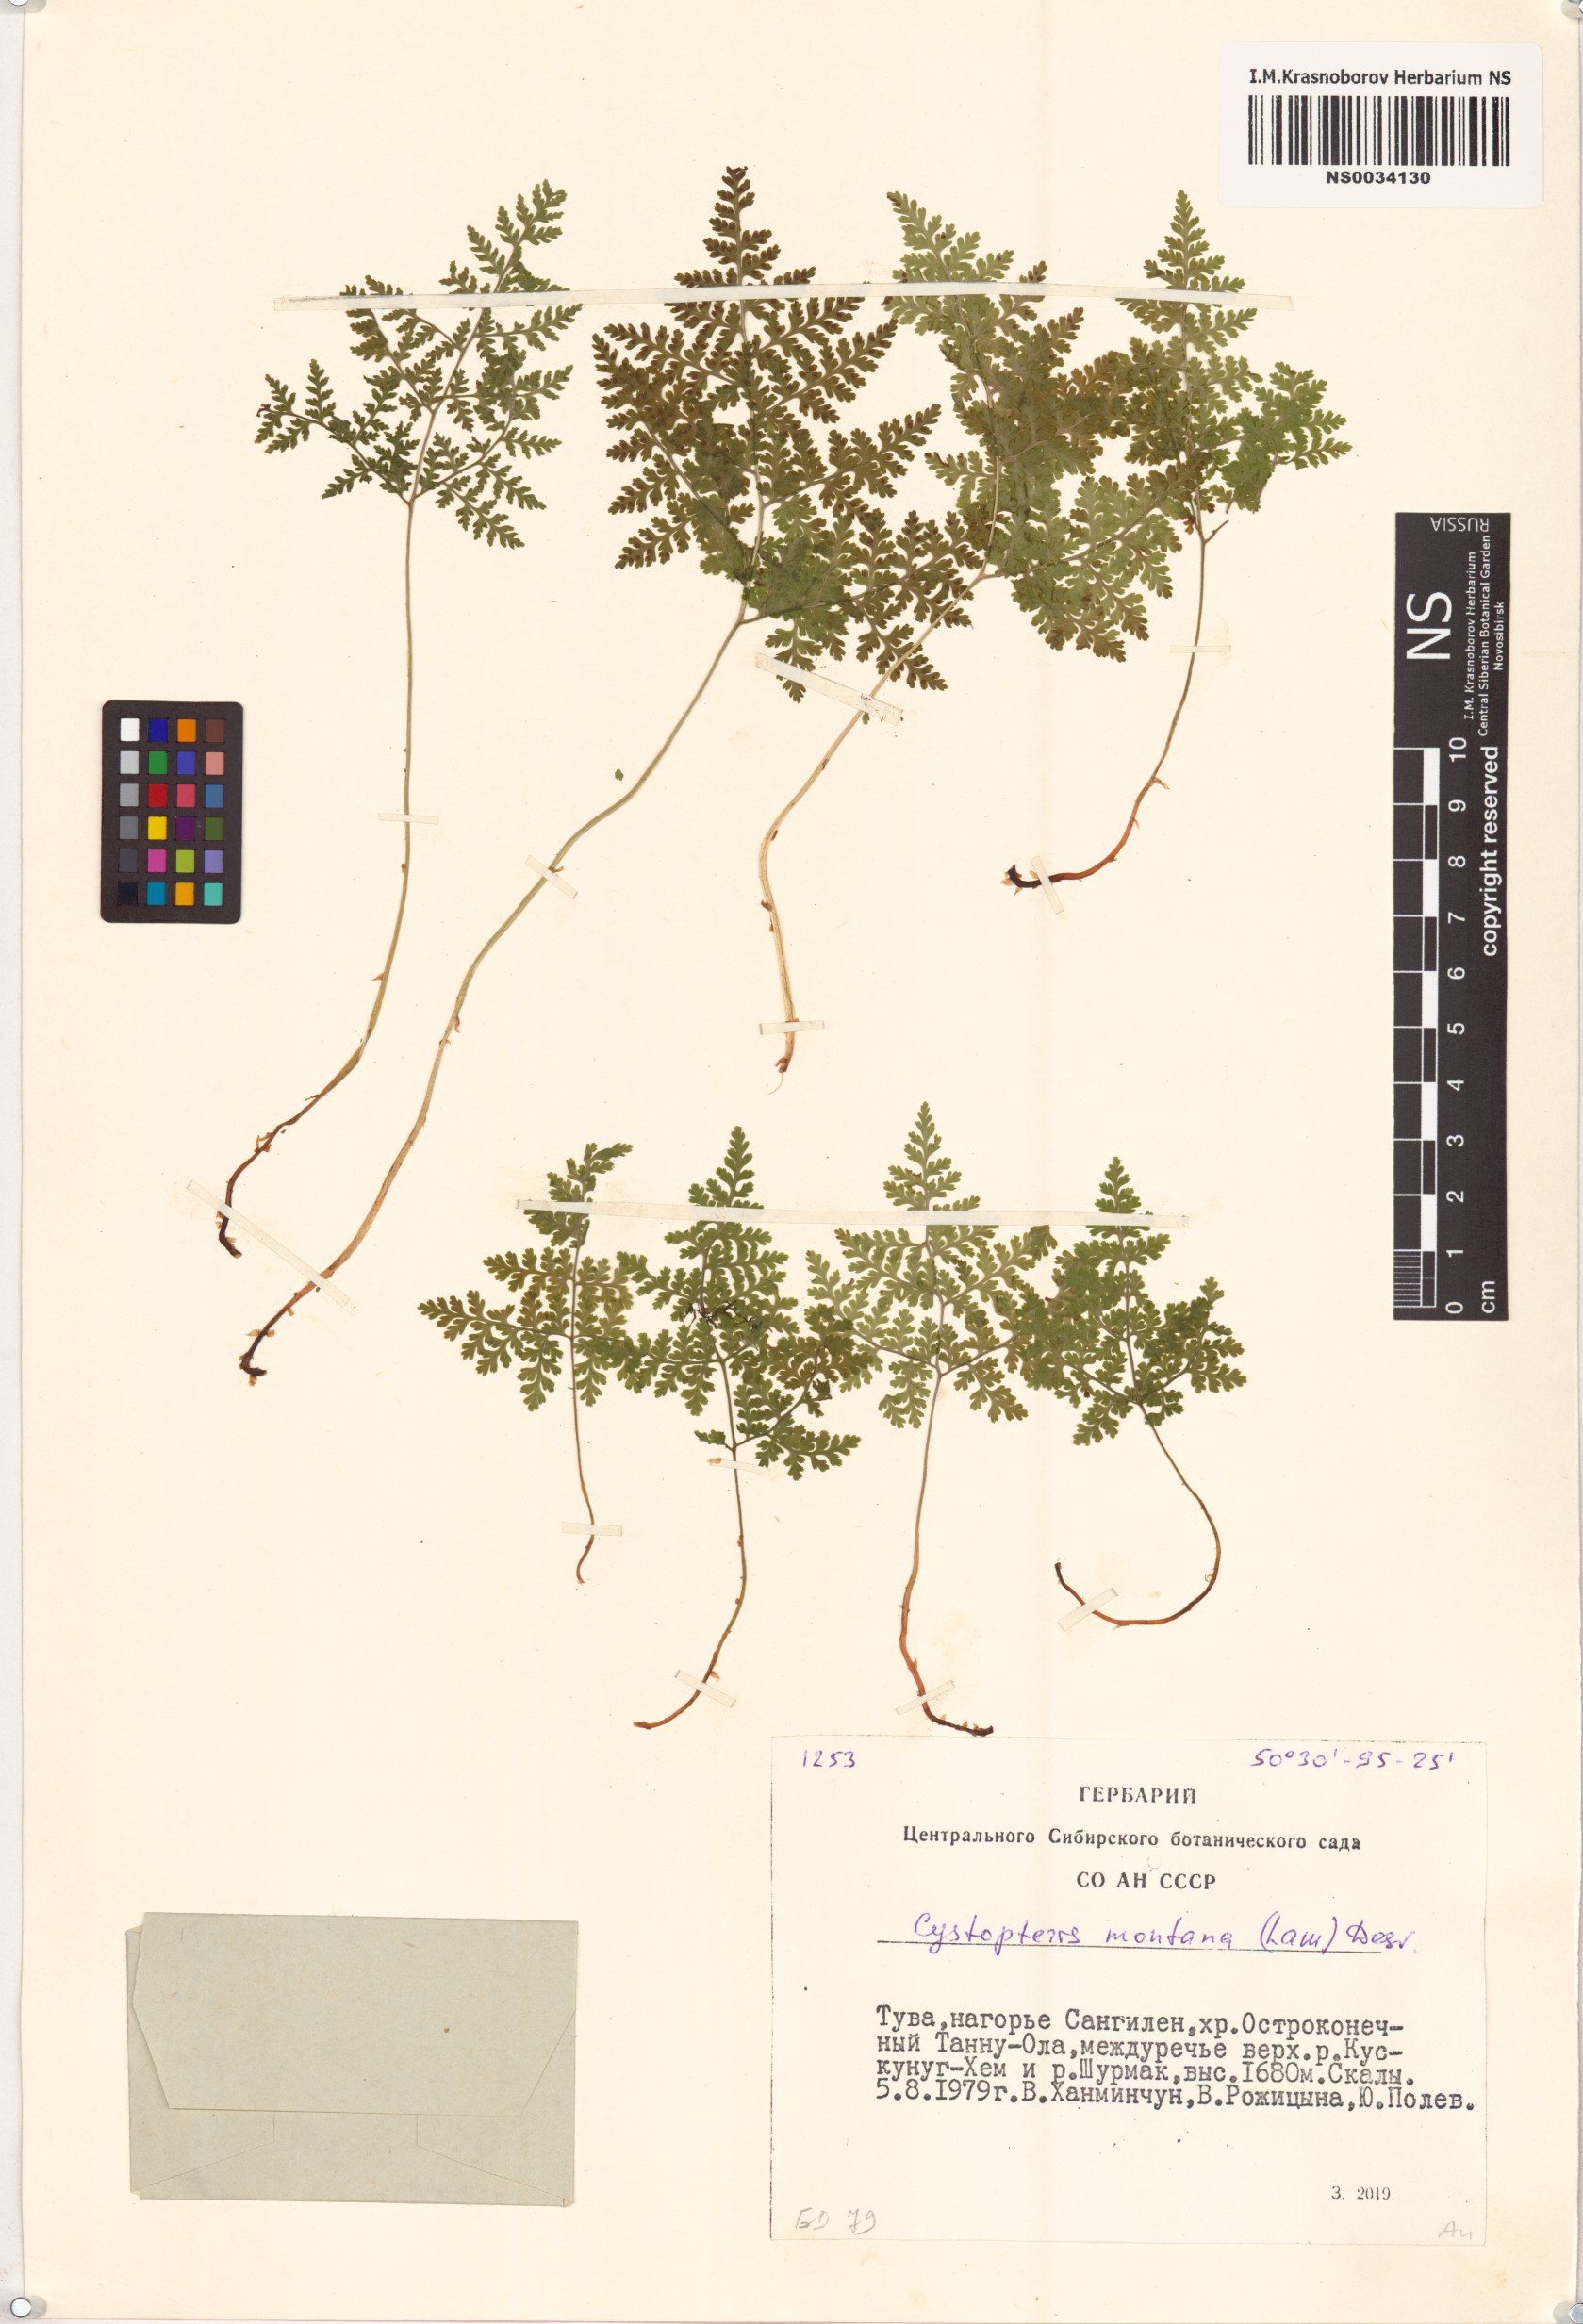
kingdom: Plantae
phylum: Tracheophyta
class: Polypodiopsida
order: Polypodiales
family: Cystopteridaceae
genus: Cystopteris
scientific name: Cystopteris montana
